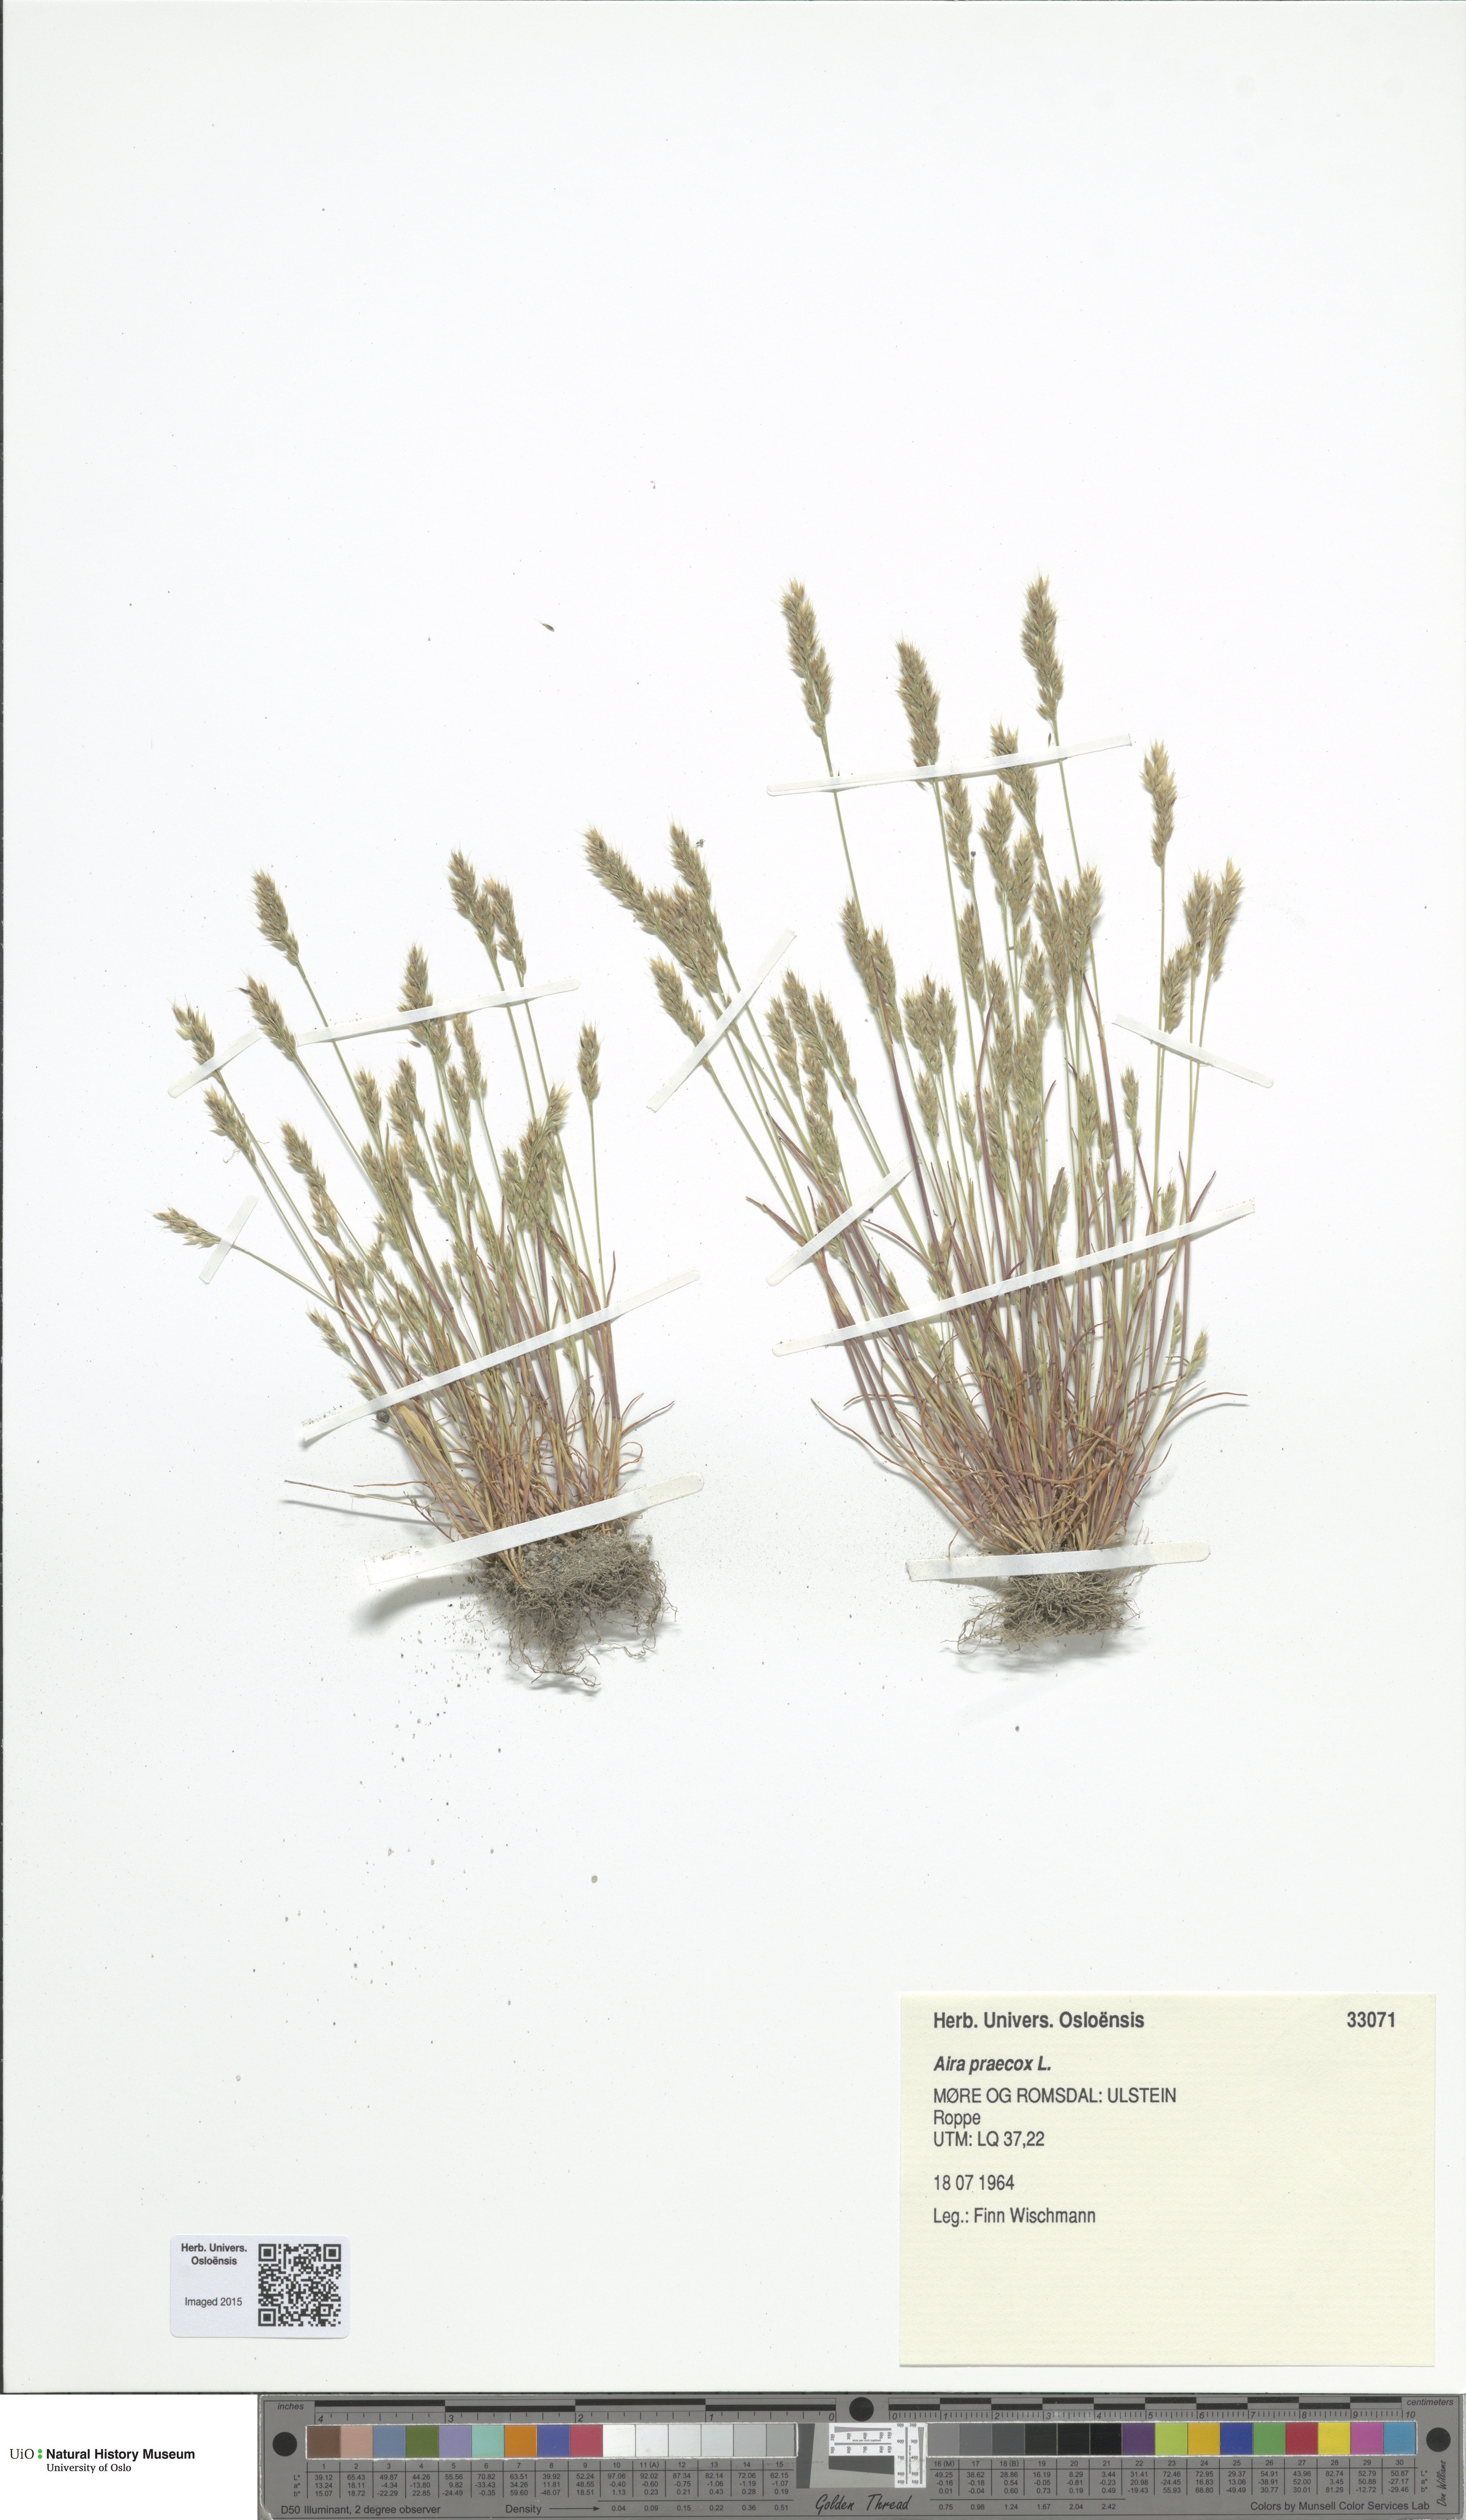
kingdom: Plantae
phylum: Tracheophyta
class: Liliopsida
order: Poales
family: Poaceae
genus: Aira
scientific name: Aira praecox
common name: Early hair-grass
